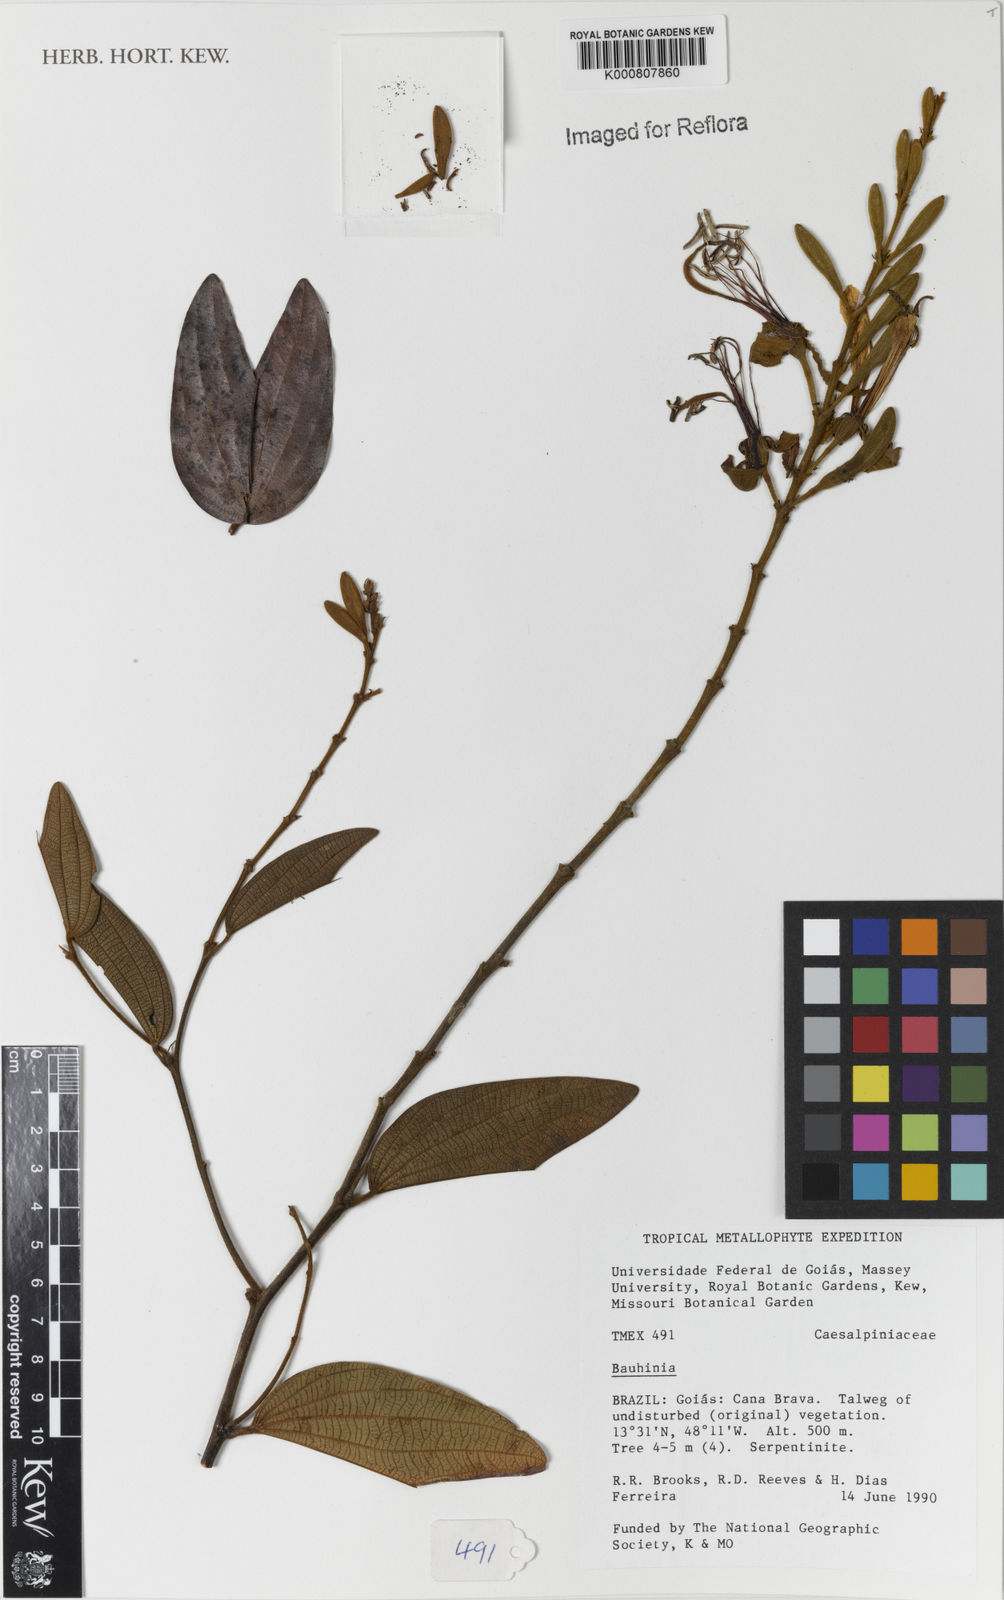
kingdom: Plantae
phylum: Tracheophyta
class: Magnoliopsida
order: Fabales
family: Fabaceae
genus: Bauhinia
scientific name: Bauhinia
